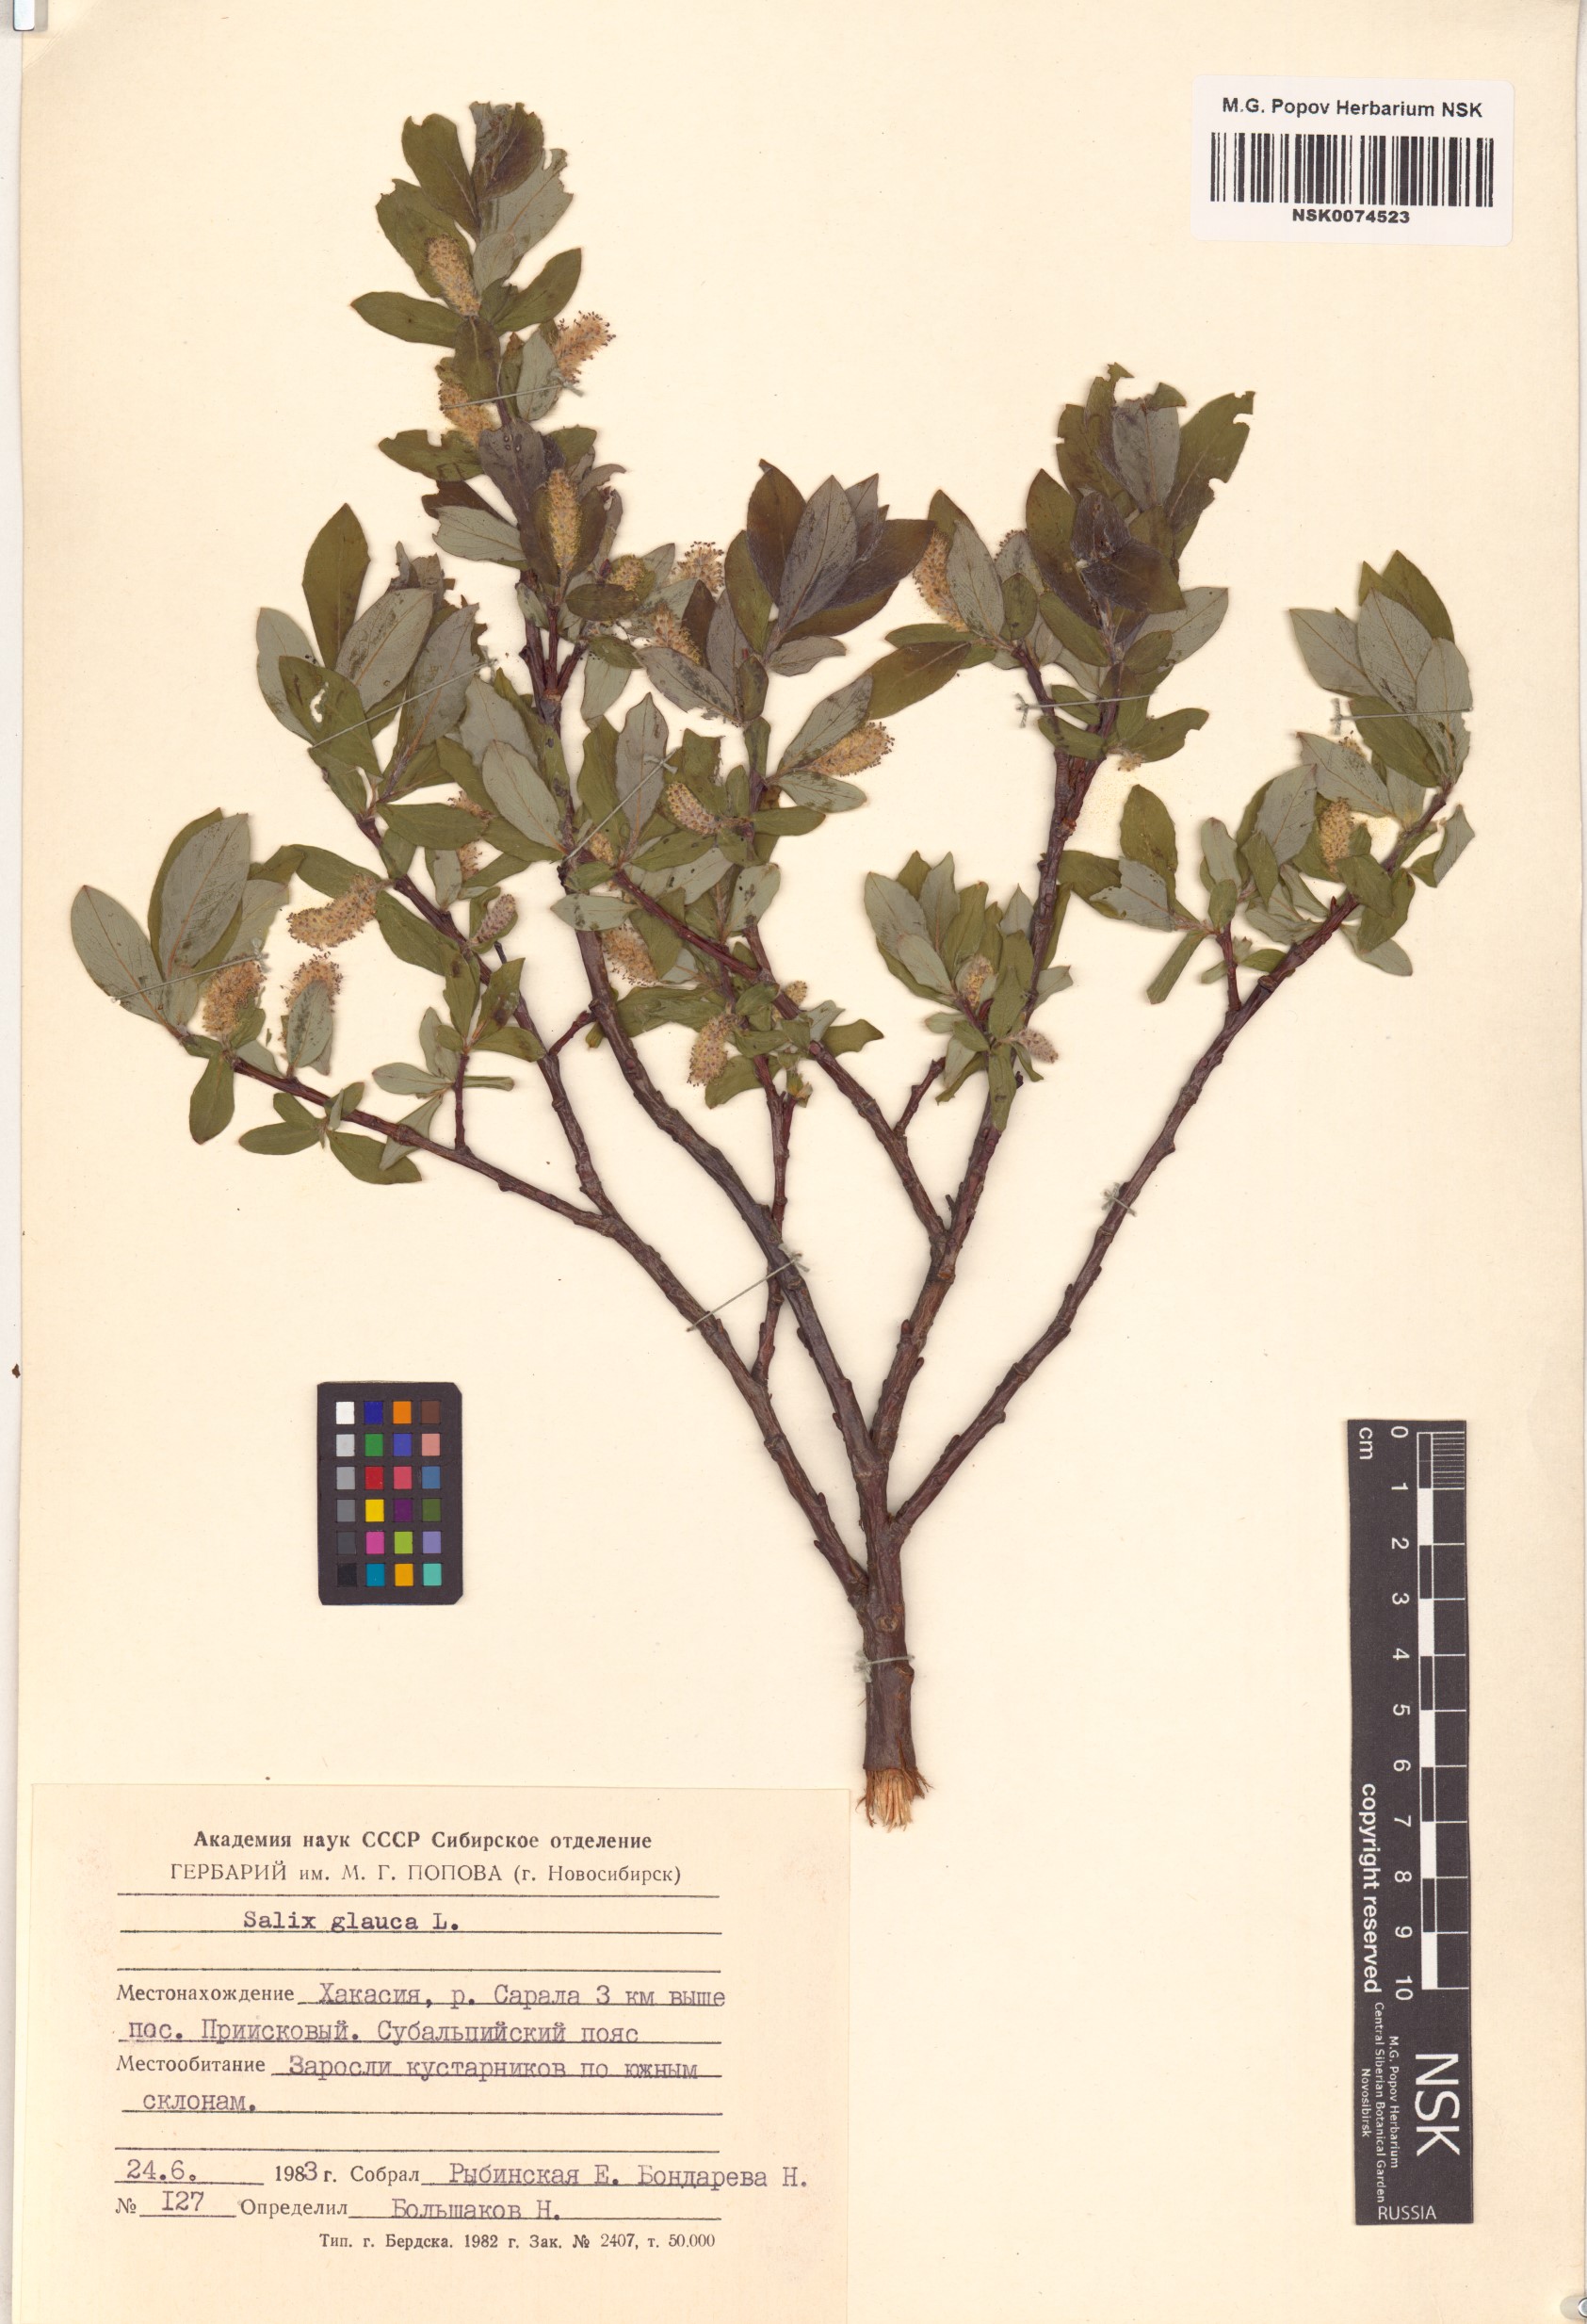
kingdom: Plantae
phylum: Tracheophyta
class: Magnoliopsida
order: Malpighiales
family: Salicaceae
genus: Salix
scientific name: Salix glauca
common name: Glaucous willow
